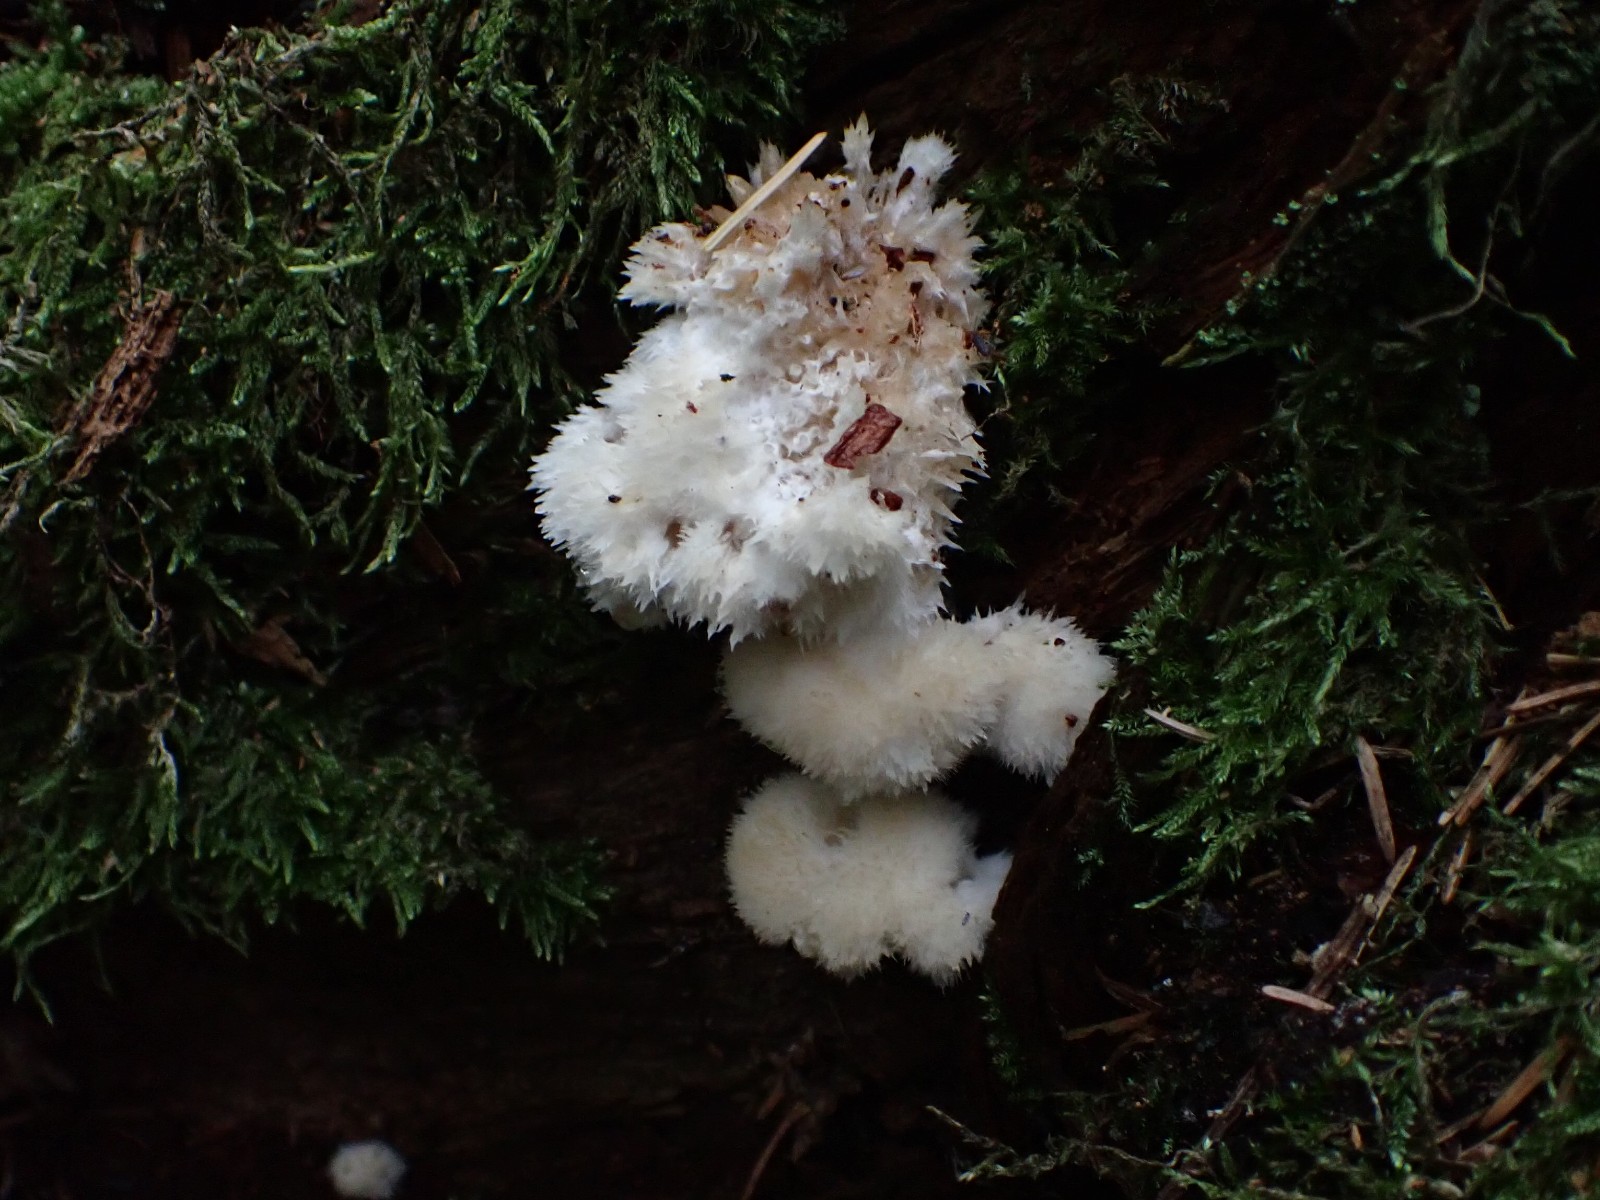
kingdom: Fungi
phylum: Basidiomycota
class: Agaricomycetes
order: Polyporales
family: Dacryobolaceae
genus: Postia
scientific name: Postia ptychogaster
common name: støvende kødporesvamp
